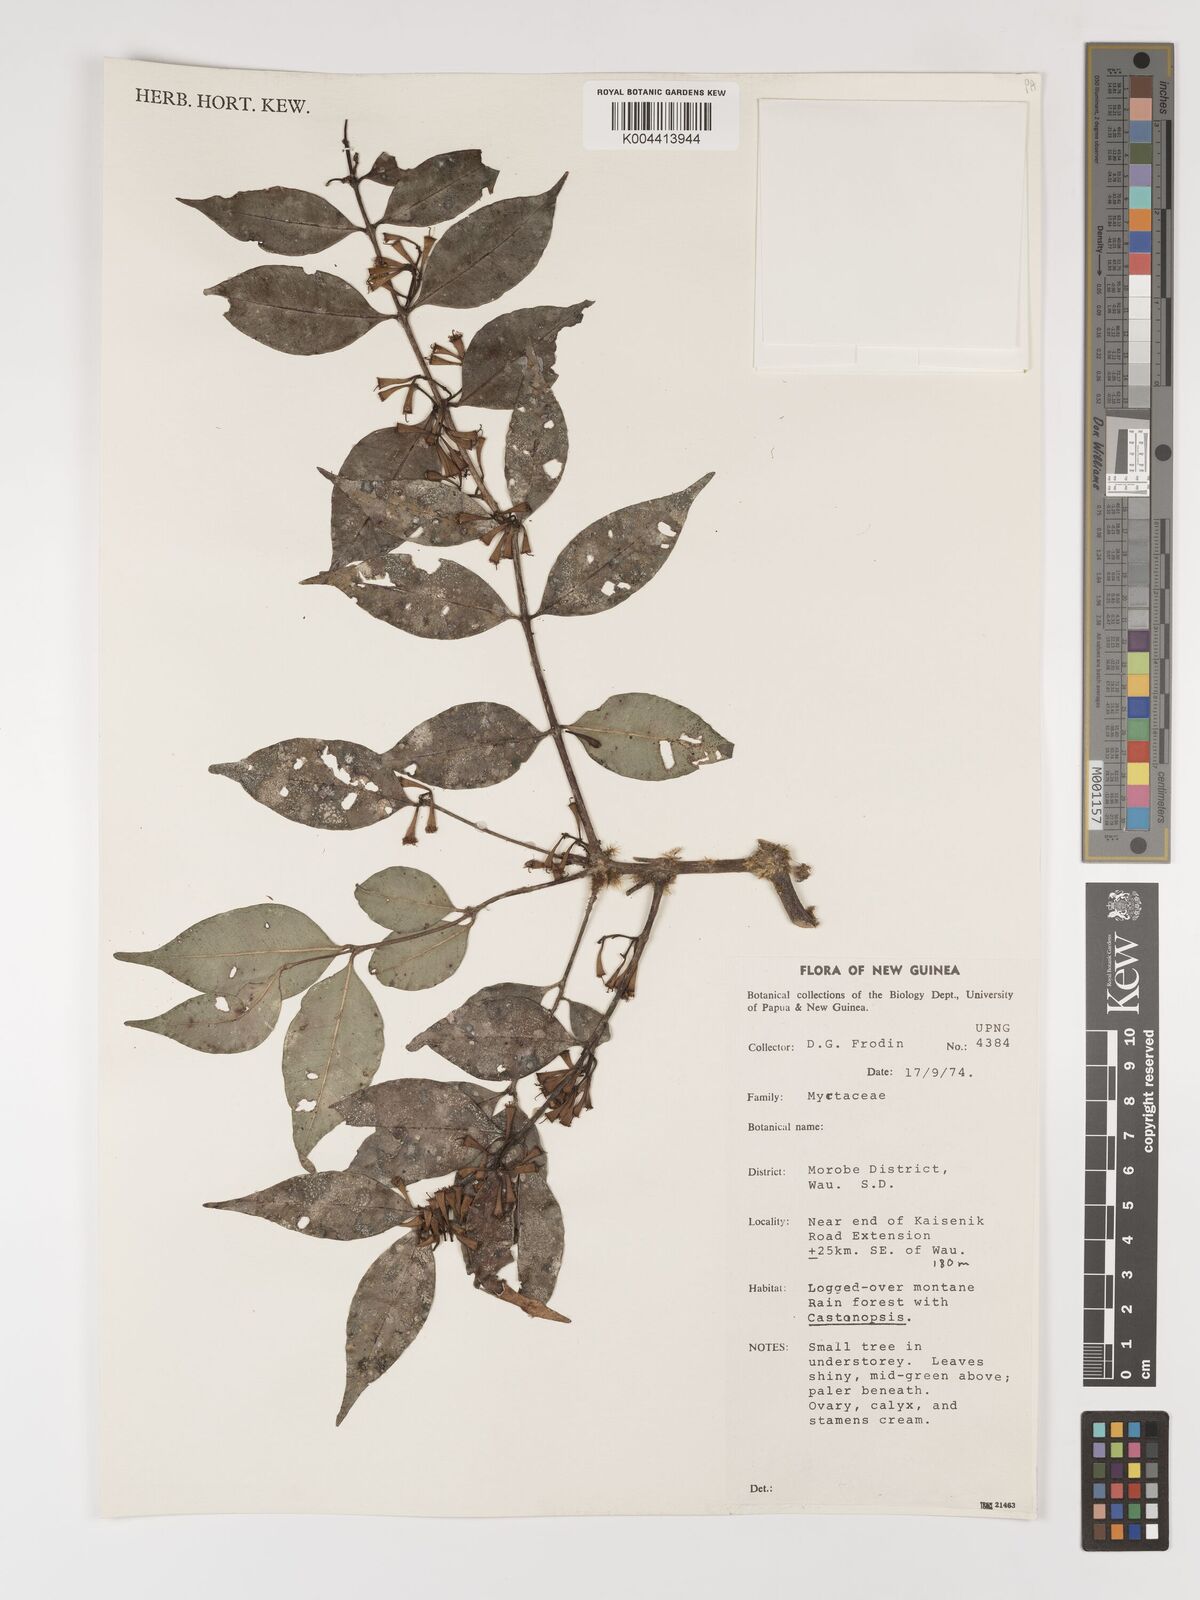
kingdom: Plantae
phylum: Tracheophyta
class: Magnoliopsida
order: Myrtales
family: Myrtaceae
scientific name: Myrtaceae
